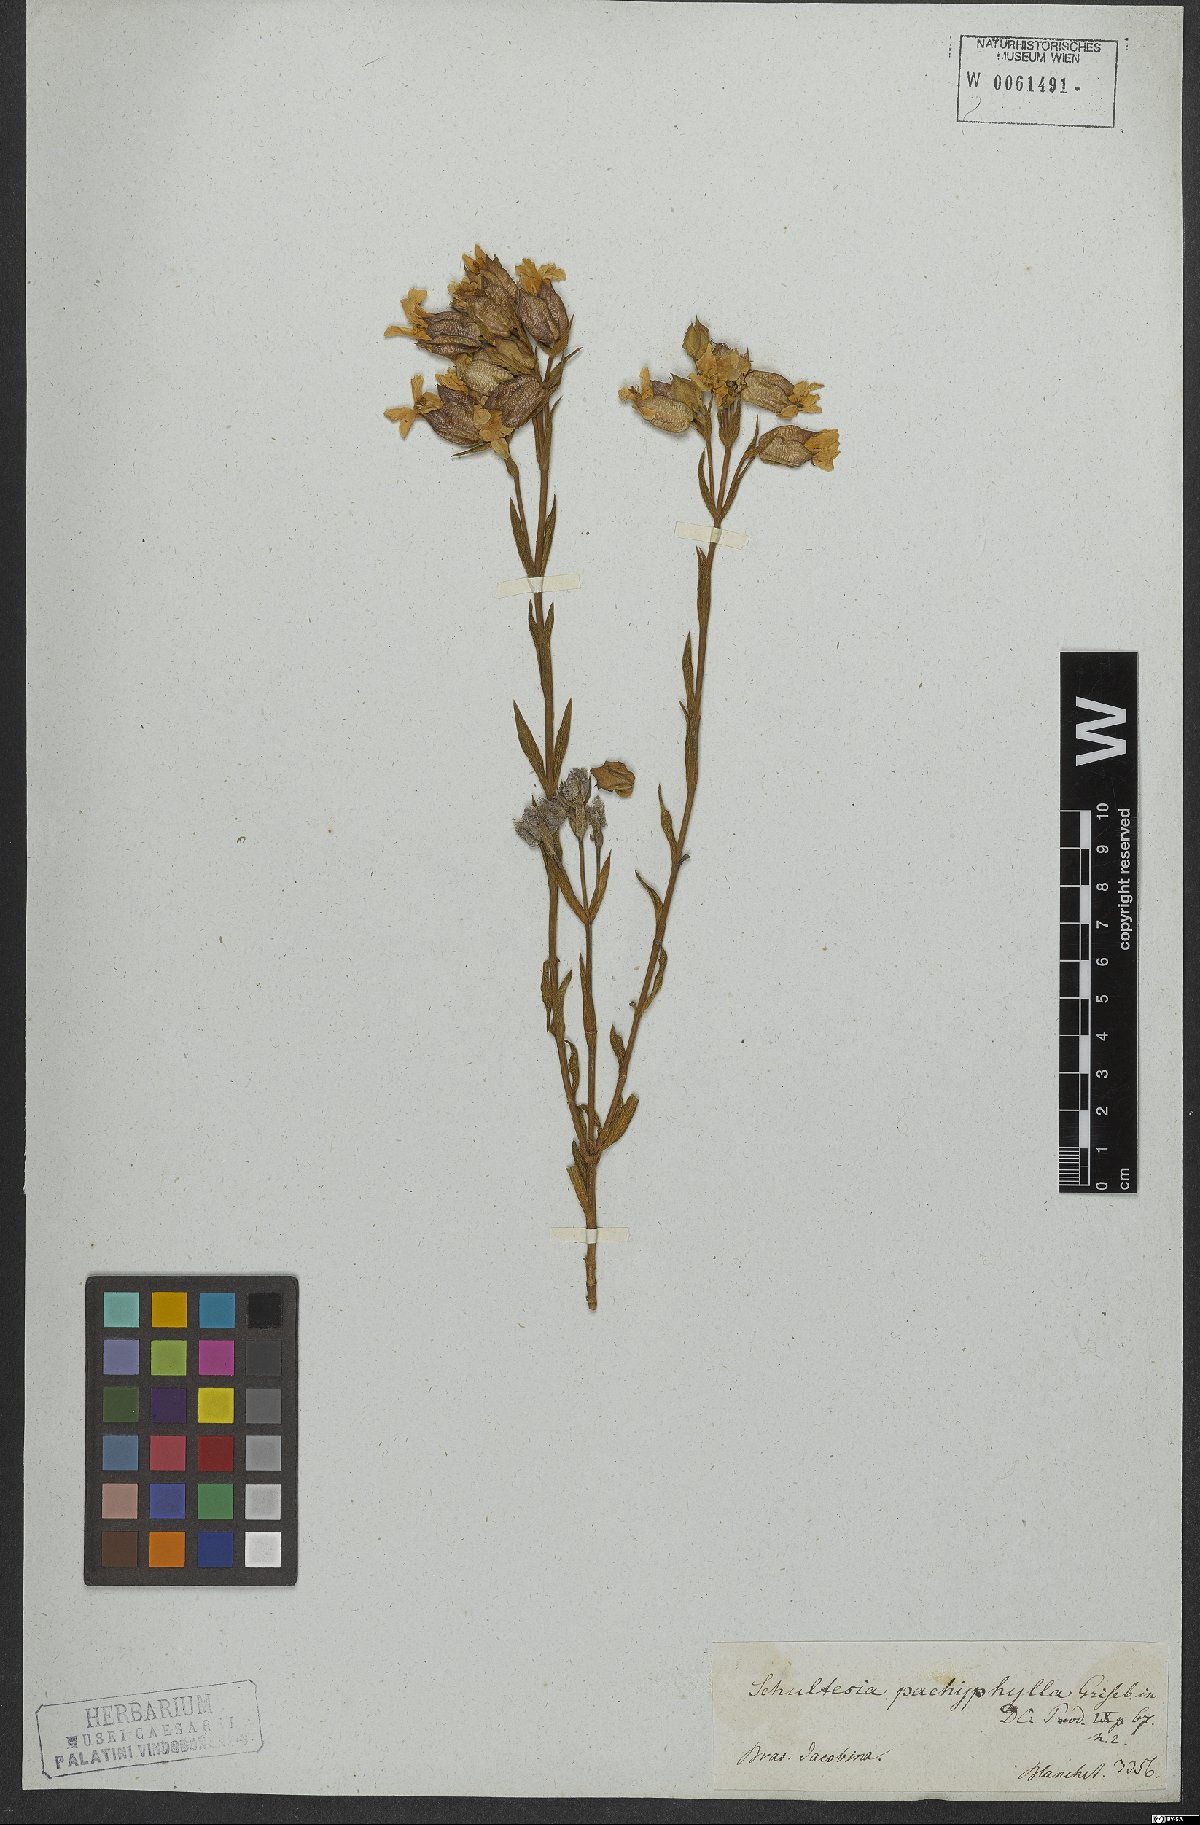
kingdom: Plantae
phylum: Tracheophyta
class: Magnoliopsida
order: Gentianales
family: Gentianaceae
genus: Schultesia
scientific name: Schultesia pachyphylla
